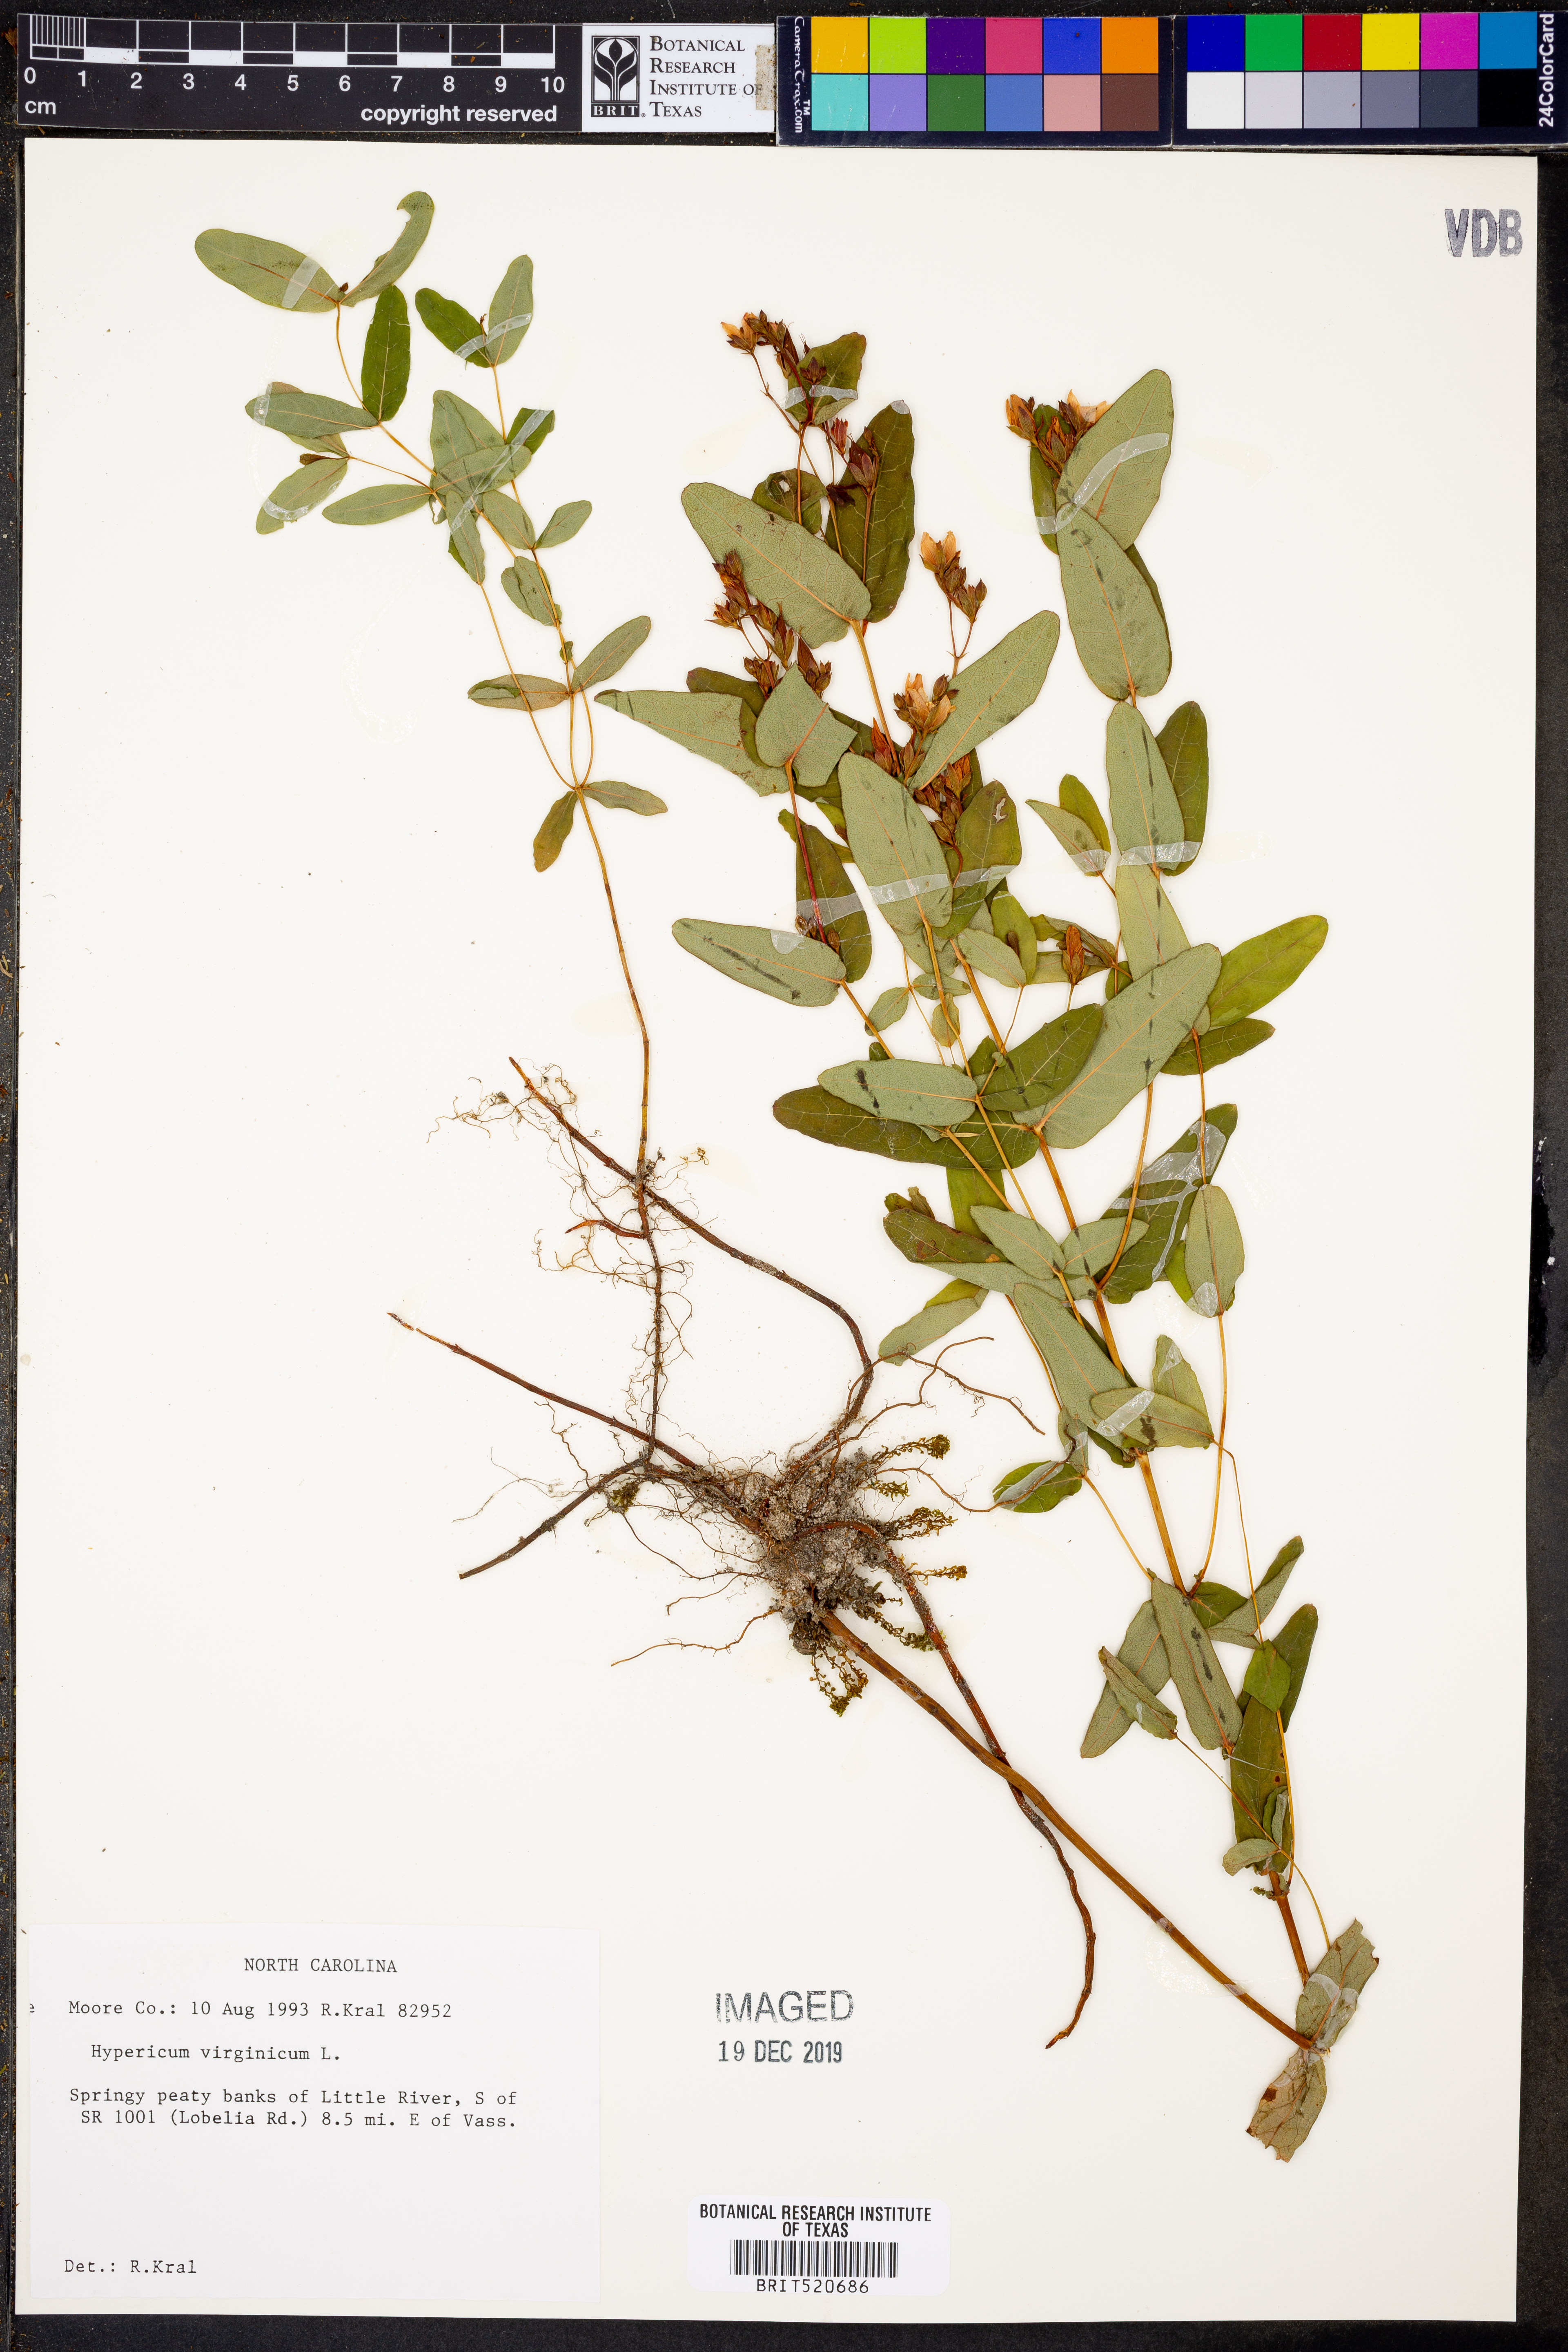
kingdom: Plantae
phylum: Tracheophyta
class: Magnoliopsida
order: Malpighiales
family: Hypericaceae
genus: Triadenum
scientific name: Triadenum virginicum
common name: Marsh st. john's-wort
